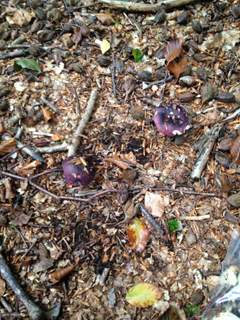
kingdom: Fungi
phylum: Basidiomycota
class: Agaricomycetes
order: Russulales
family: Russulaceae
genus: Russula
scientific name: Russula brunneoviolacea
